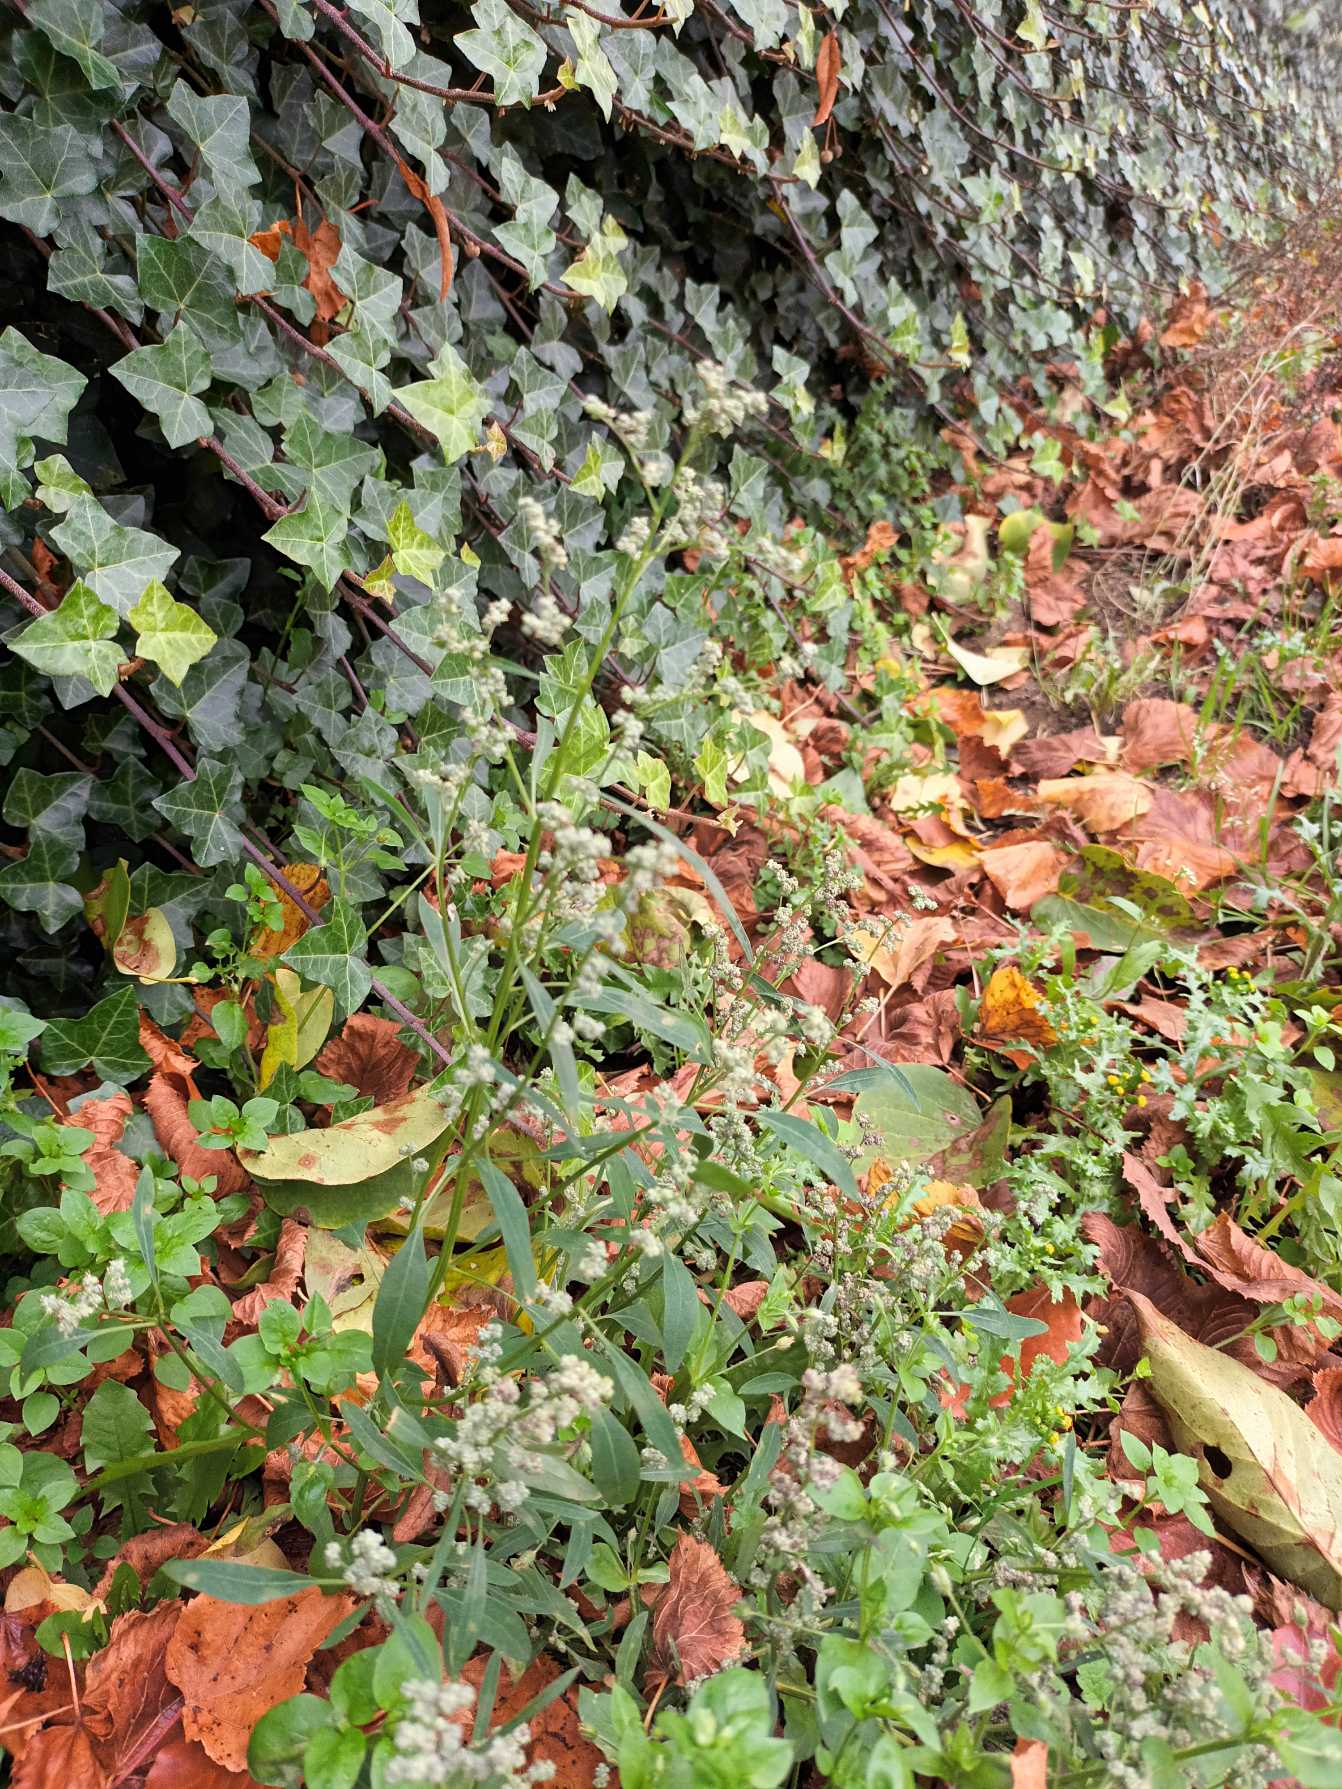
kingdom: Plantae
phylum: Tracheophyta
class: Magnoliopsida
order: Caryophyllales
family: Amaranthaceae
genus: Chenopodium
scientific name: Chenopodium pratericola
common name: Finbladet gåsefod
